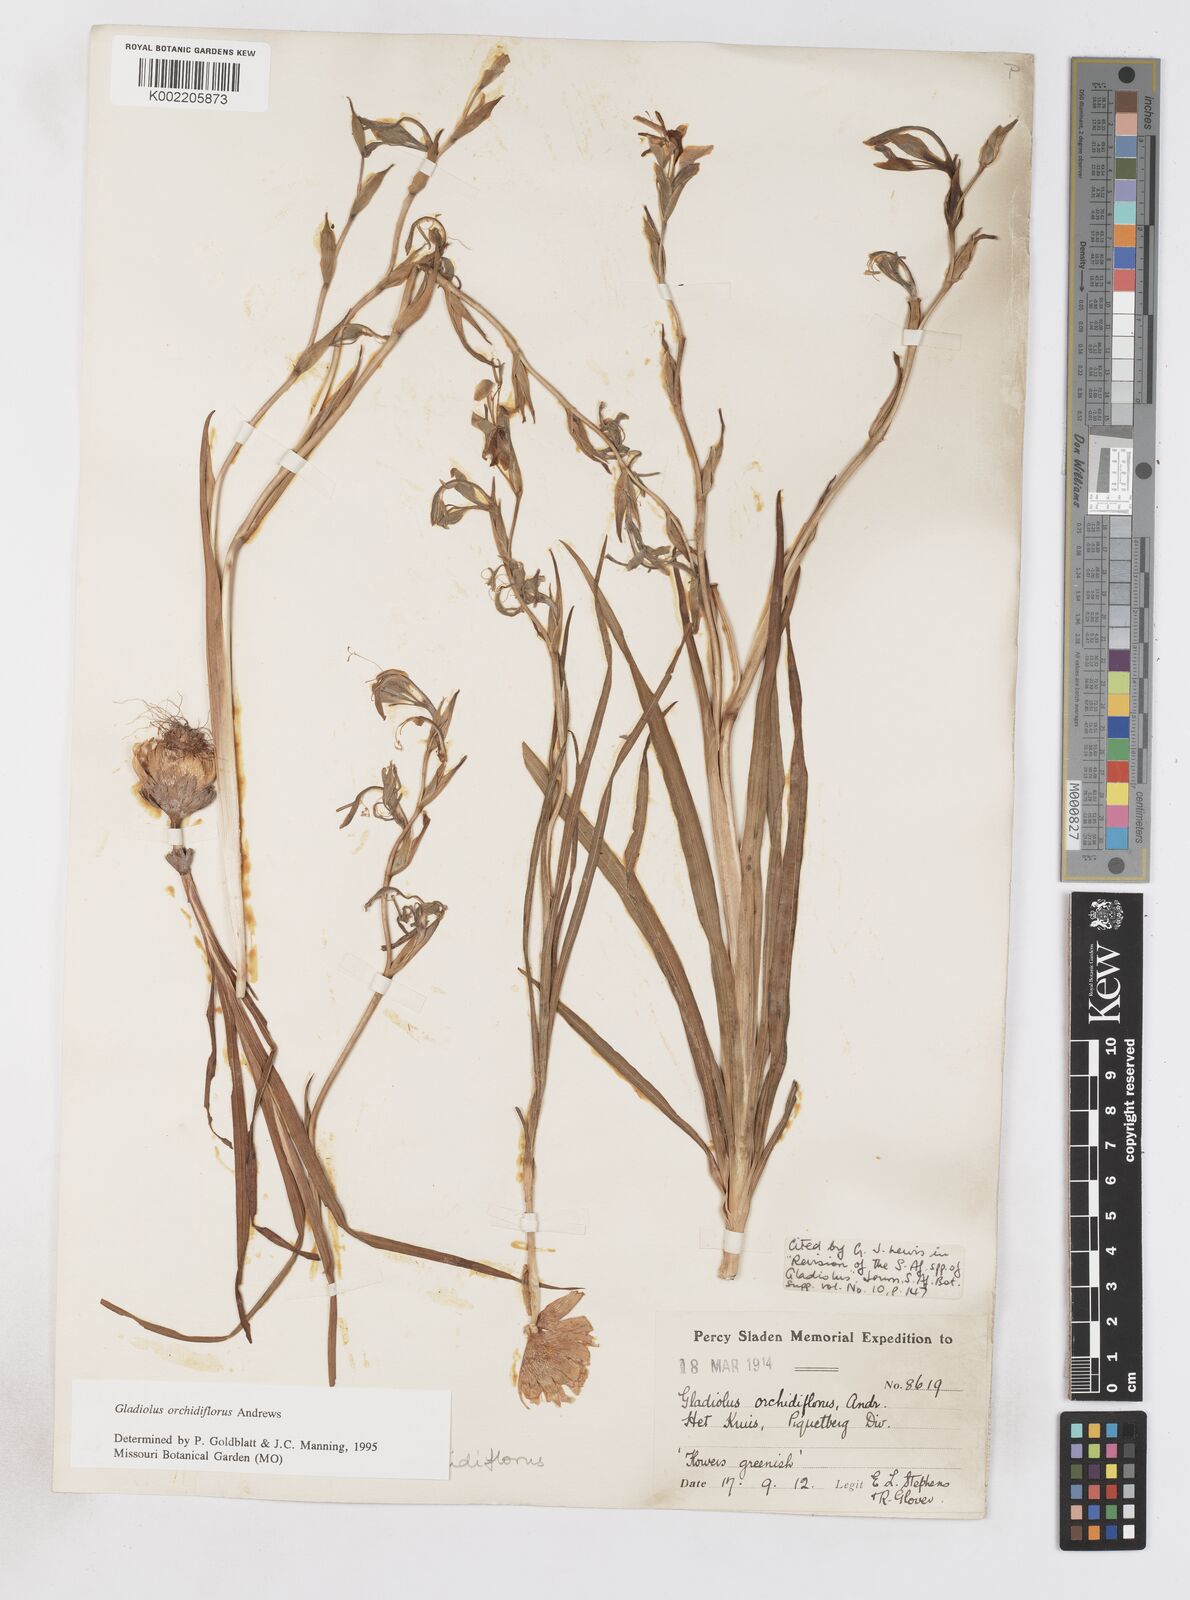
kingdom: Plantae
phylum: Tracheophyta
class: Liliopsida
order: Asparagales
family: Iridaceae
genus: Gladiolus
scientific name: Gladiolus orchidiflorus
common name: Gray kalkoentjie
